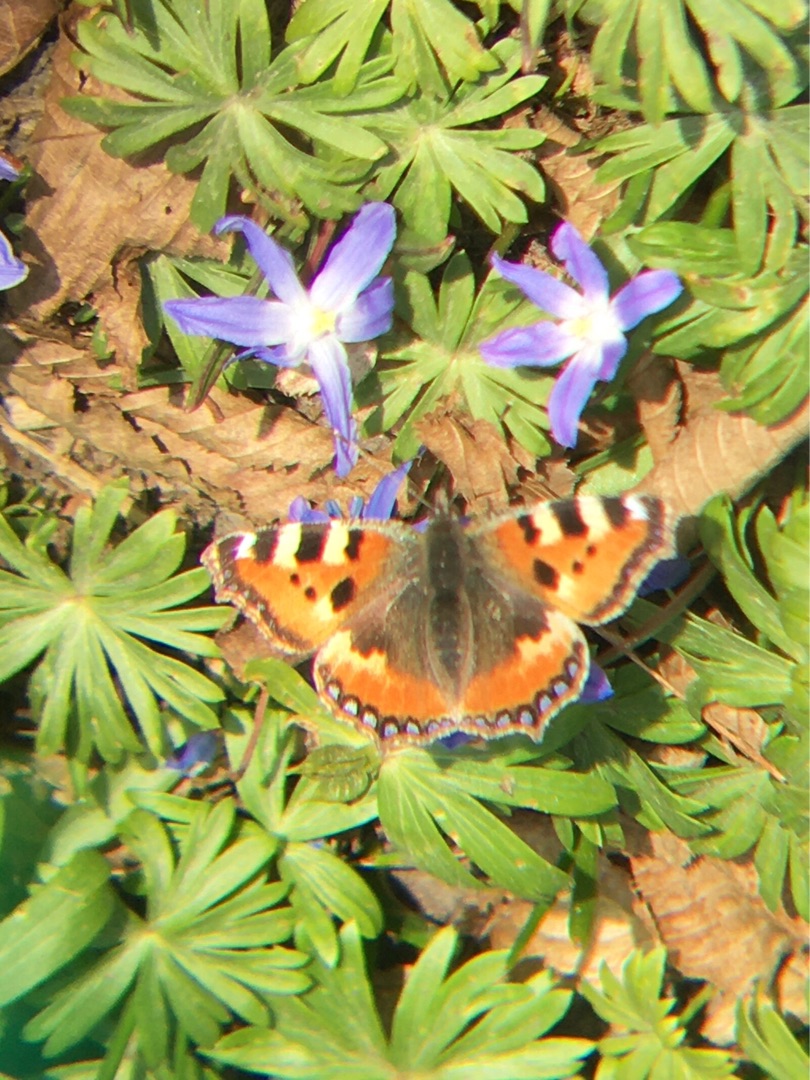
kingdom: Animalia
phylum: Arthropoda
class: Insecta
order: Lepidoptera
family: Nymphalidae
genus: Aglais
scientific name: Aglais urticae
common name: Nældens takvinge
